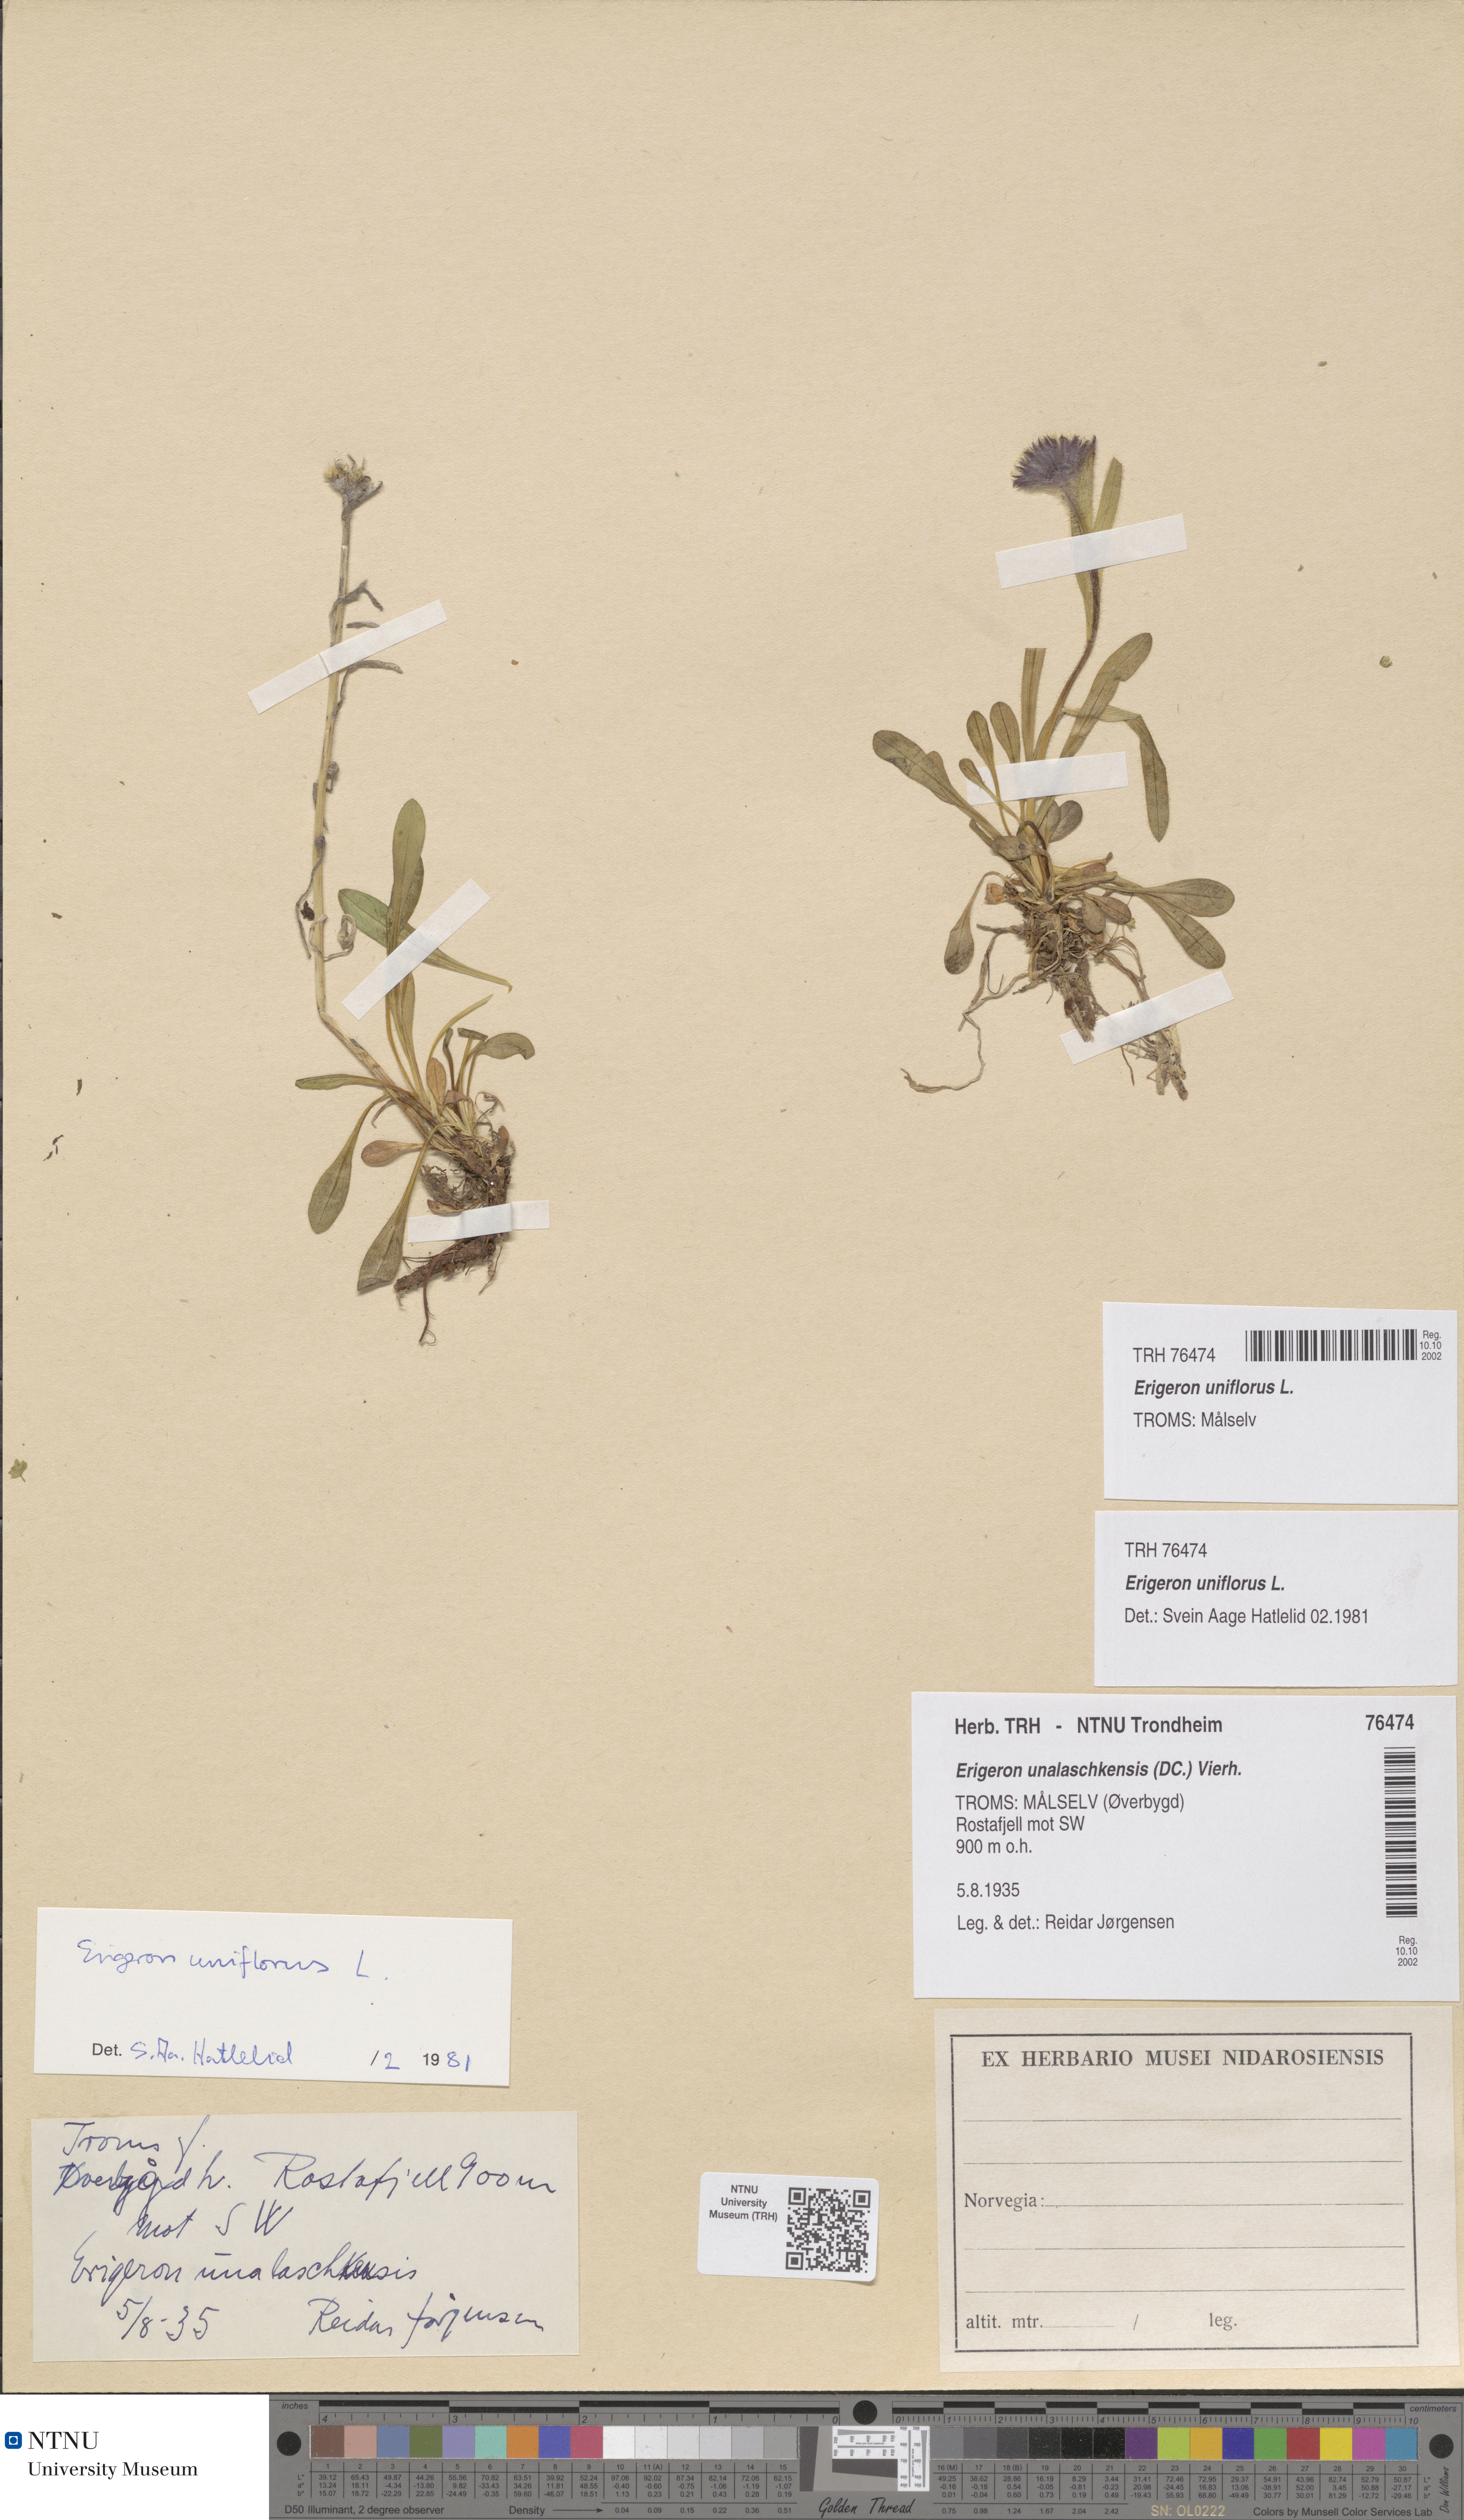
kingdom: Plantae
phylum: Tracheophyta
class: Magnoliopsida
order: Asterales
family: Asteraceae
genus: Erigeron
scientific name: Erigeron uniflorus
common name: Northern daisy
